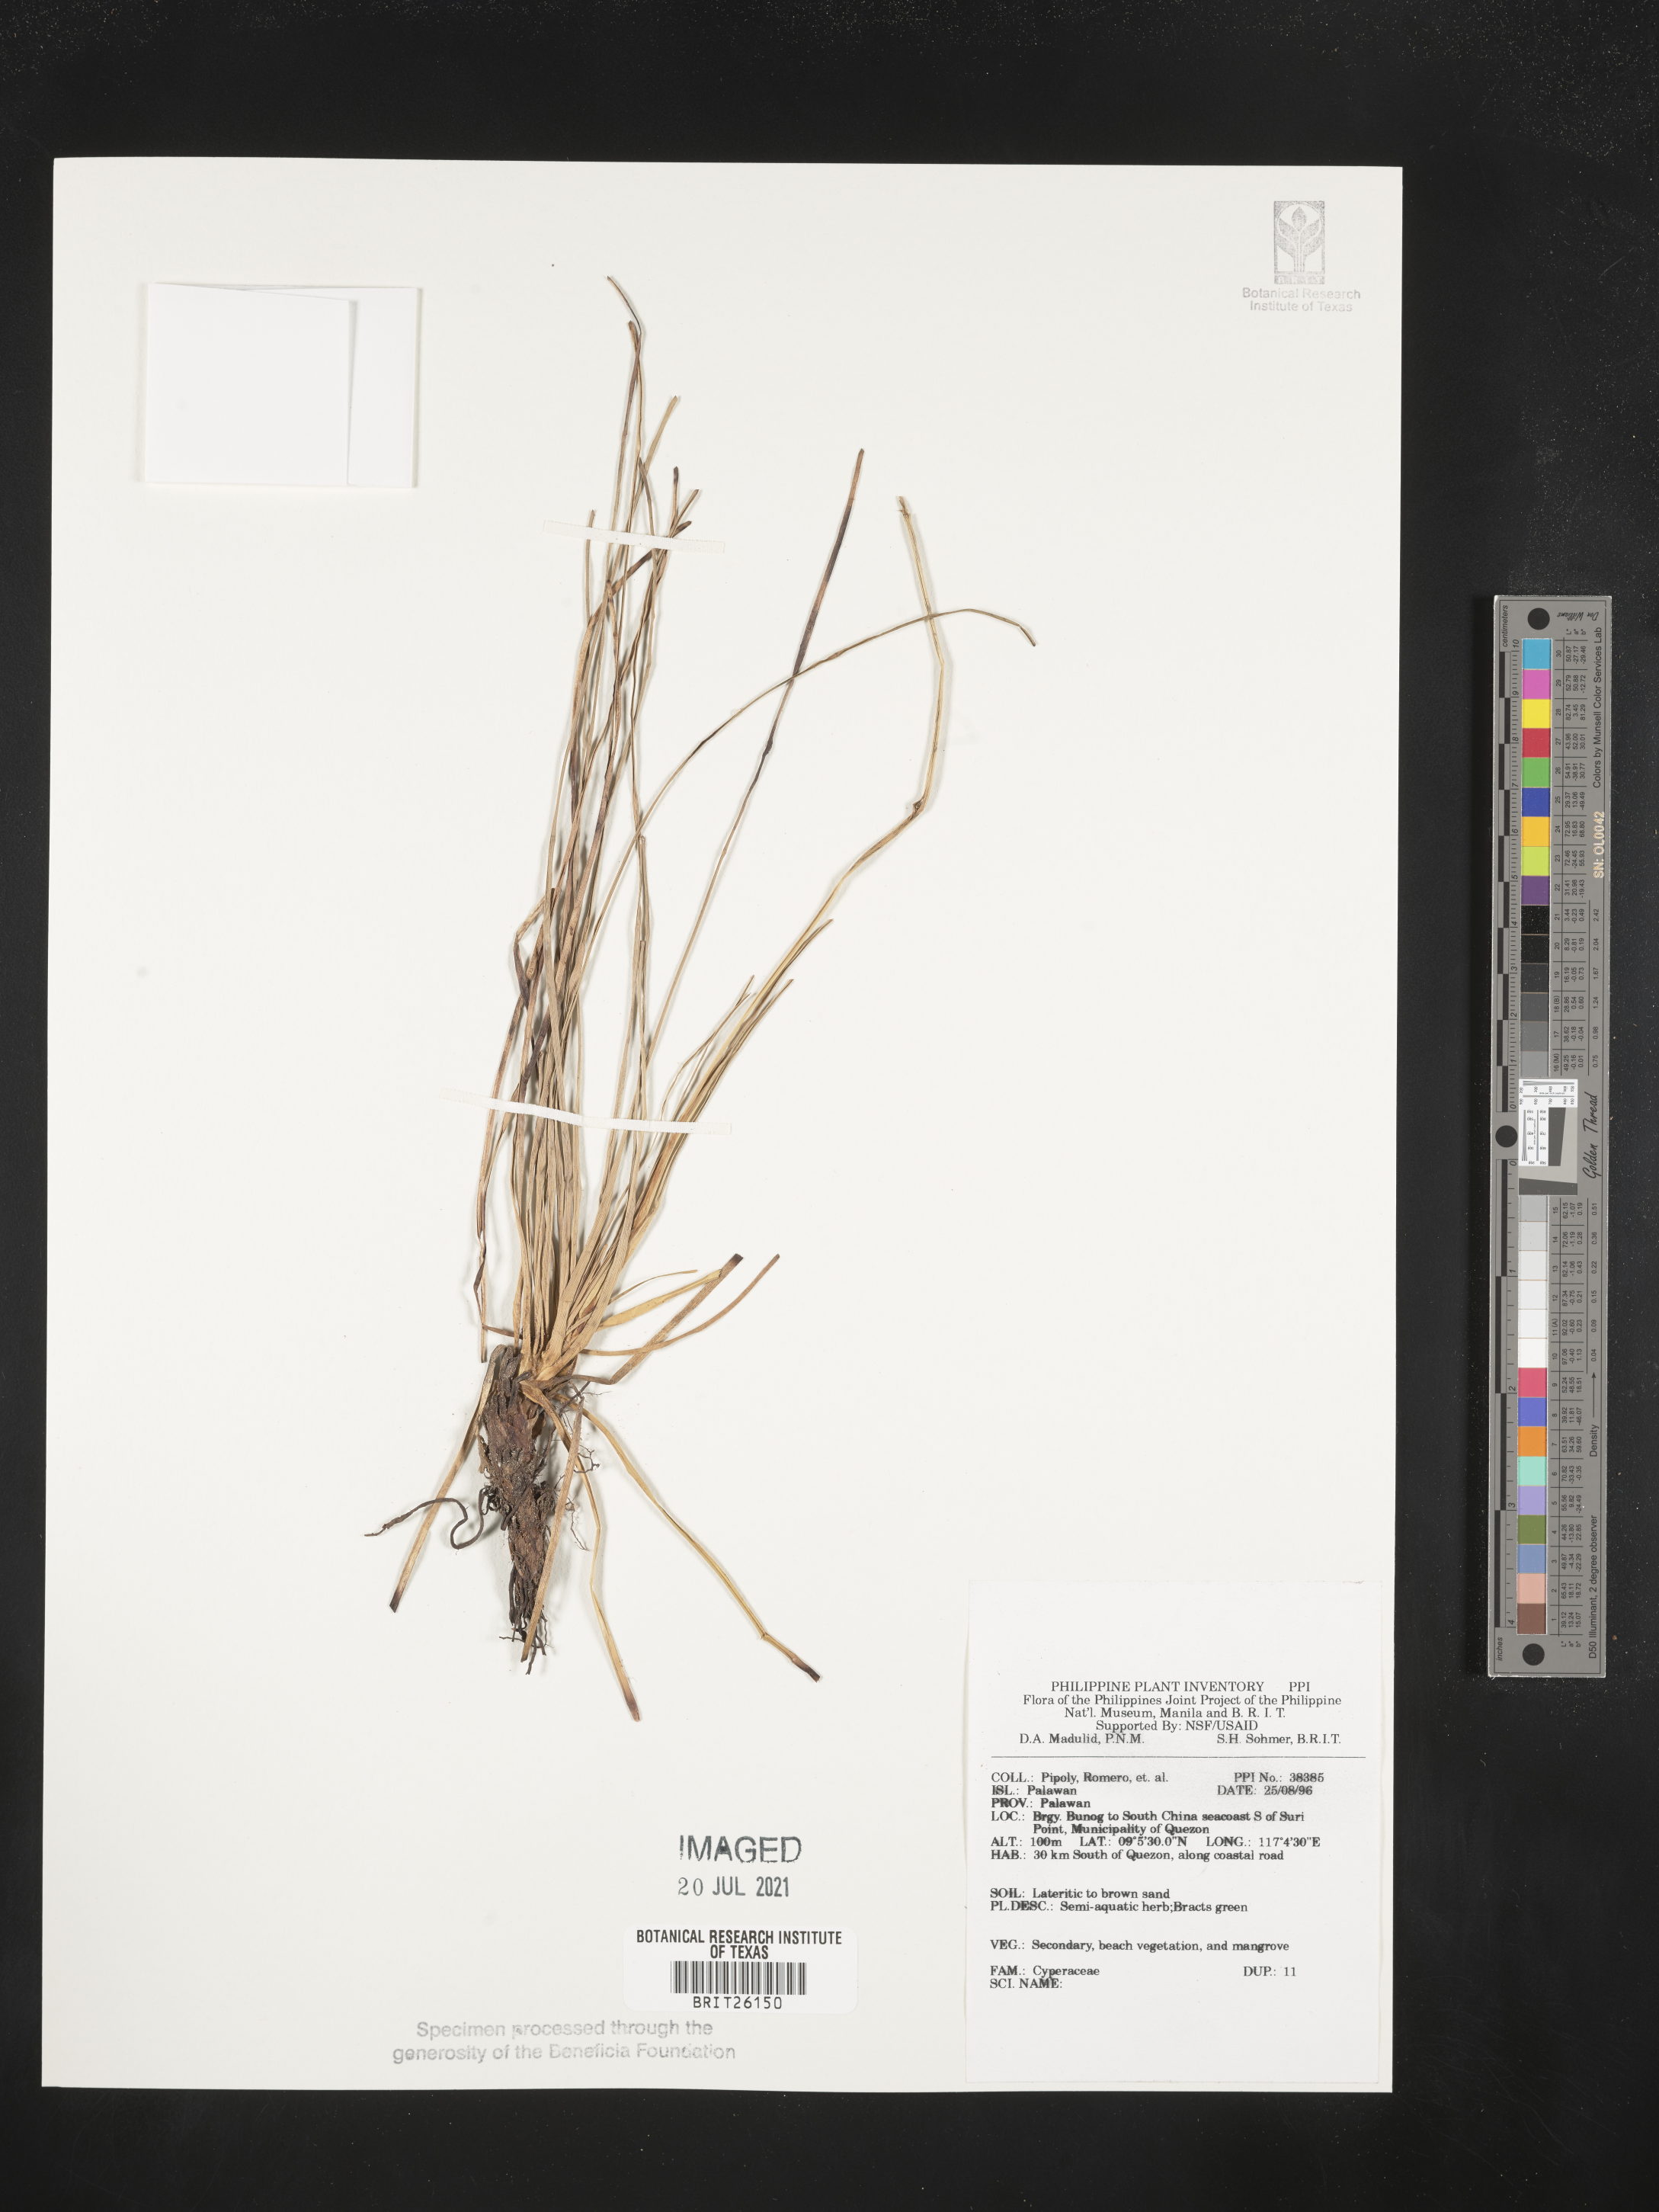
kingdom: Plantae
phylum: Tracheophyta
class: Liliopsida
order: Poales
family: Cyperaceae
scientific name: Cyperaceae
